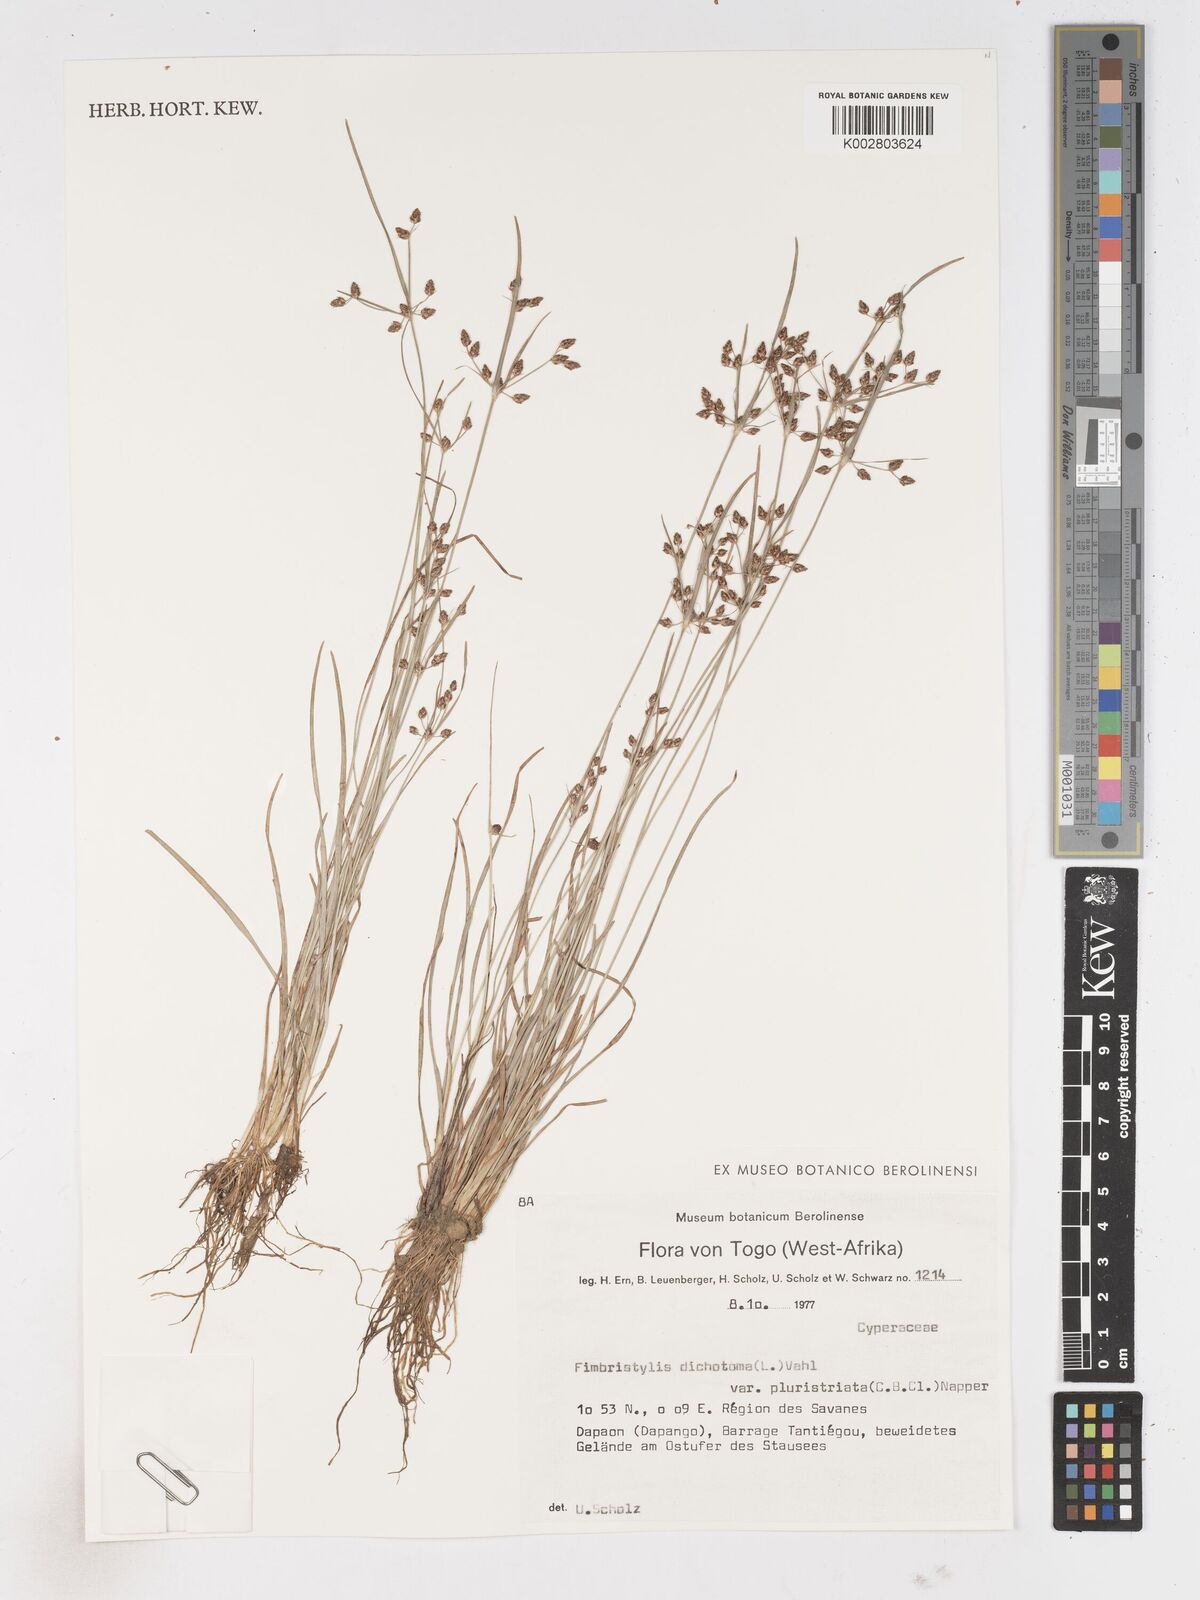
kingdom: Plantae
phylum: Tracheophyta
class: Liliopsida
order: Poales
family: Cyperaceae
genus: Fimbristylis
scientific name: Fimbristylis dichotoma
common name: Forked fimbry
